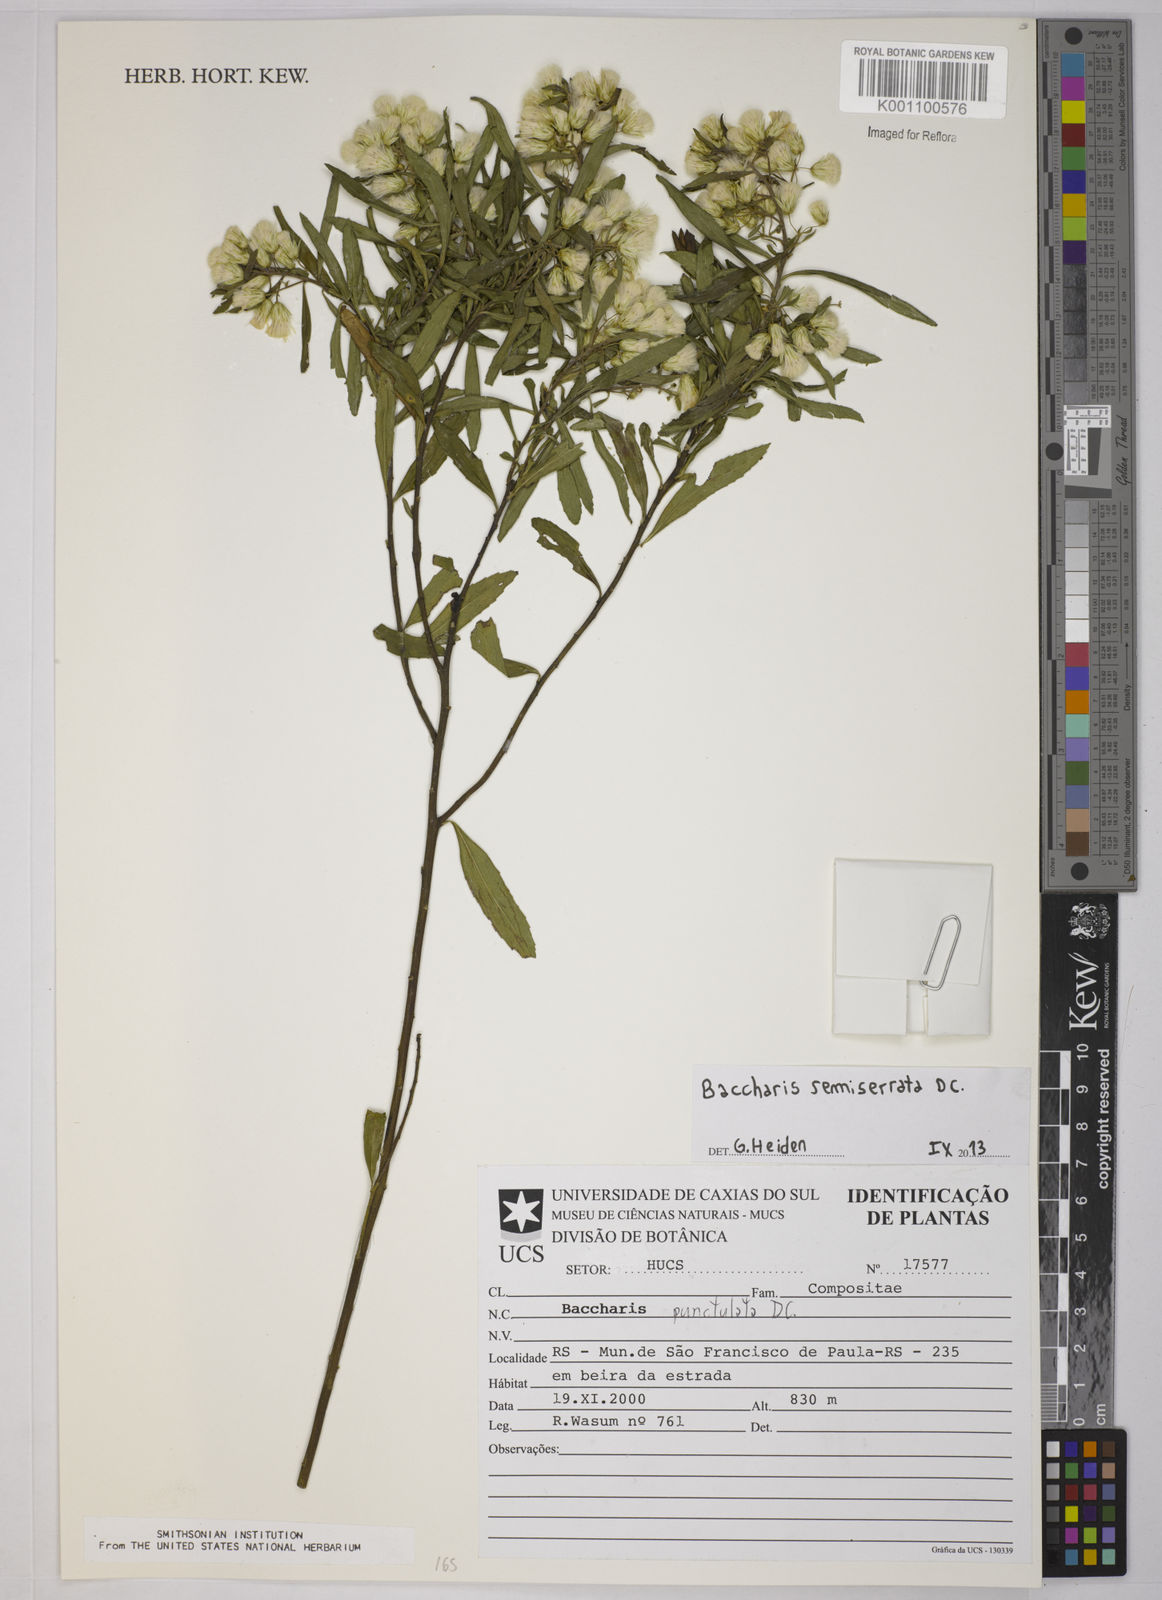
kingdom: Plantae
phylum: Tracheophyta
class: Magnoliopsida
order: Asterales
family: Asteraceae
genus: Baccharis
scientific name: Baccharis gnidiifolia
